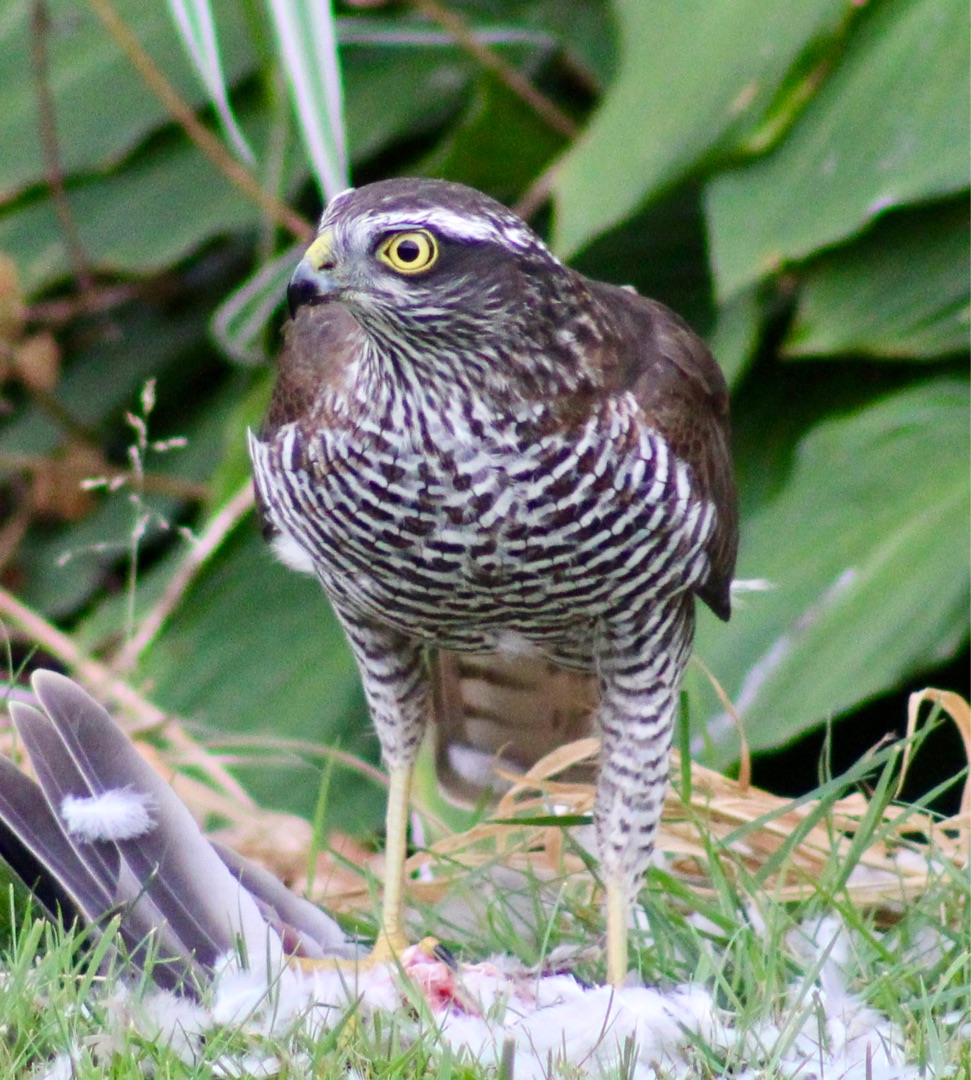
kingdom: Animalia
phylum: Chordata
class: Aves
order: Accipitriformes
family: Accipitridae
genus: Accipiter
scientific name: Accipiter nisus
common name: Spurvehøg
